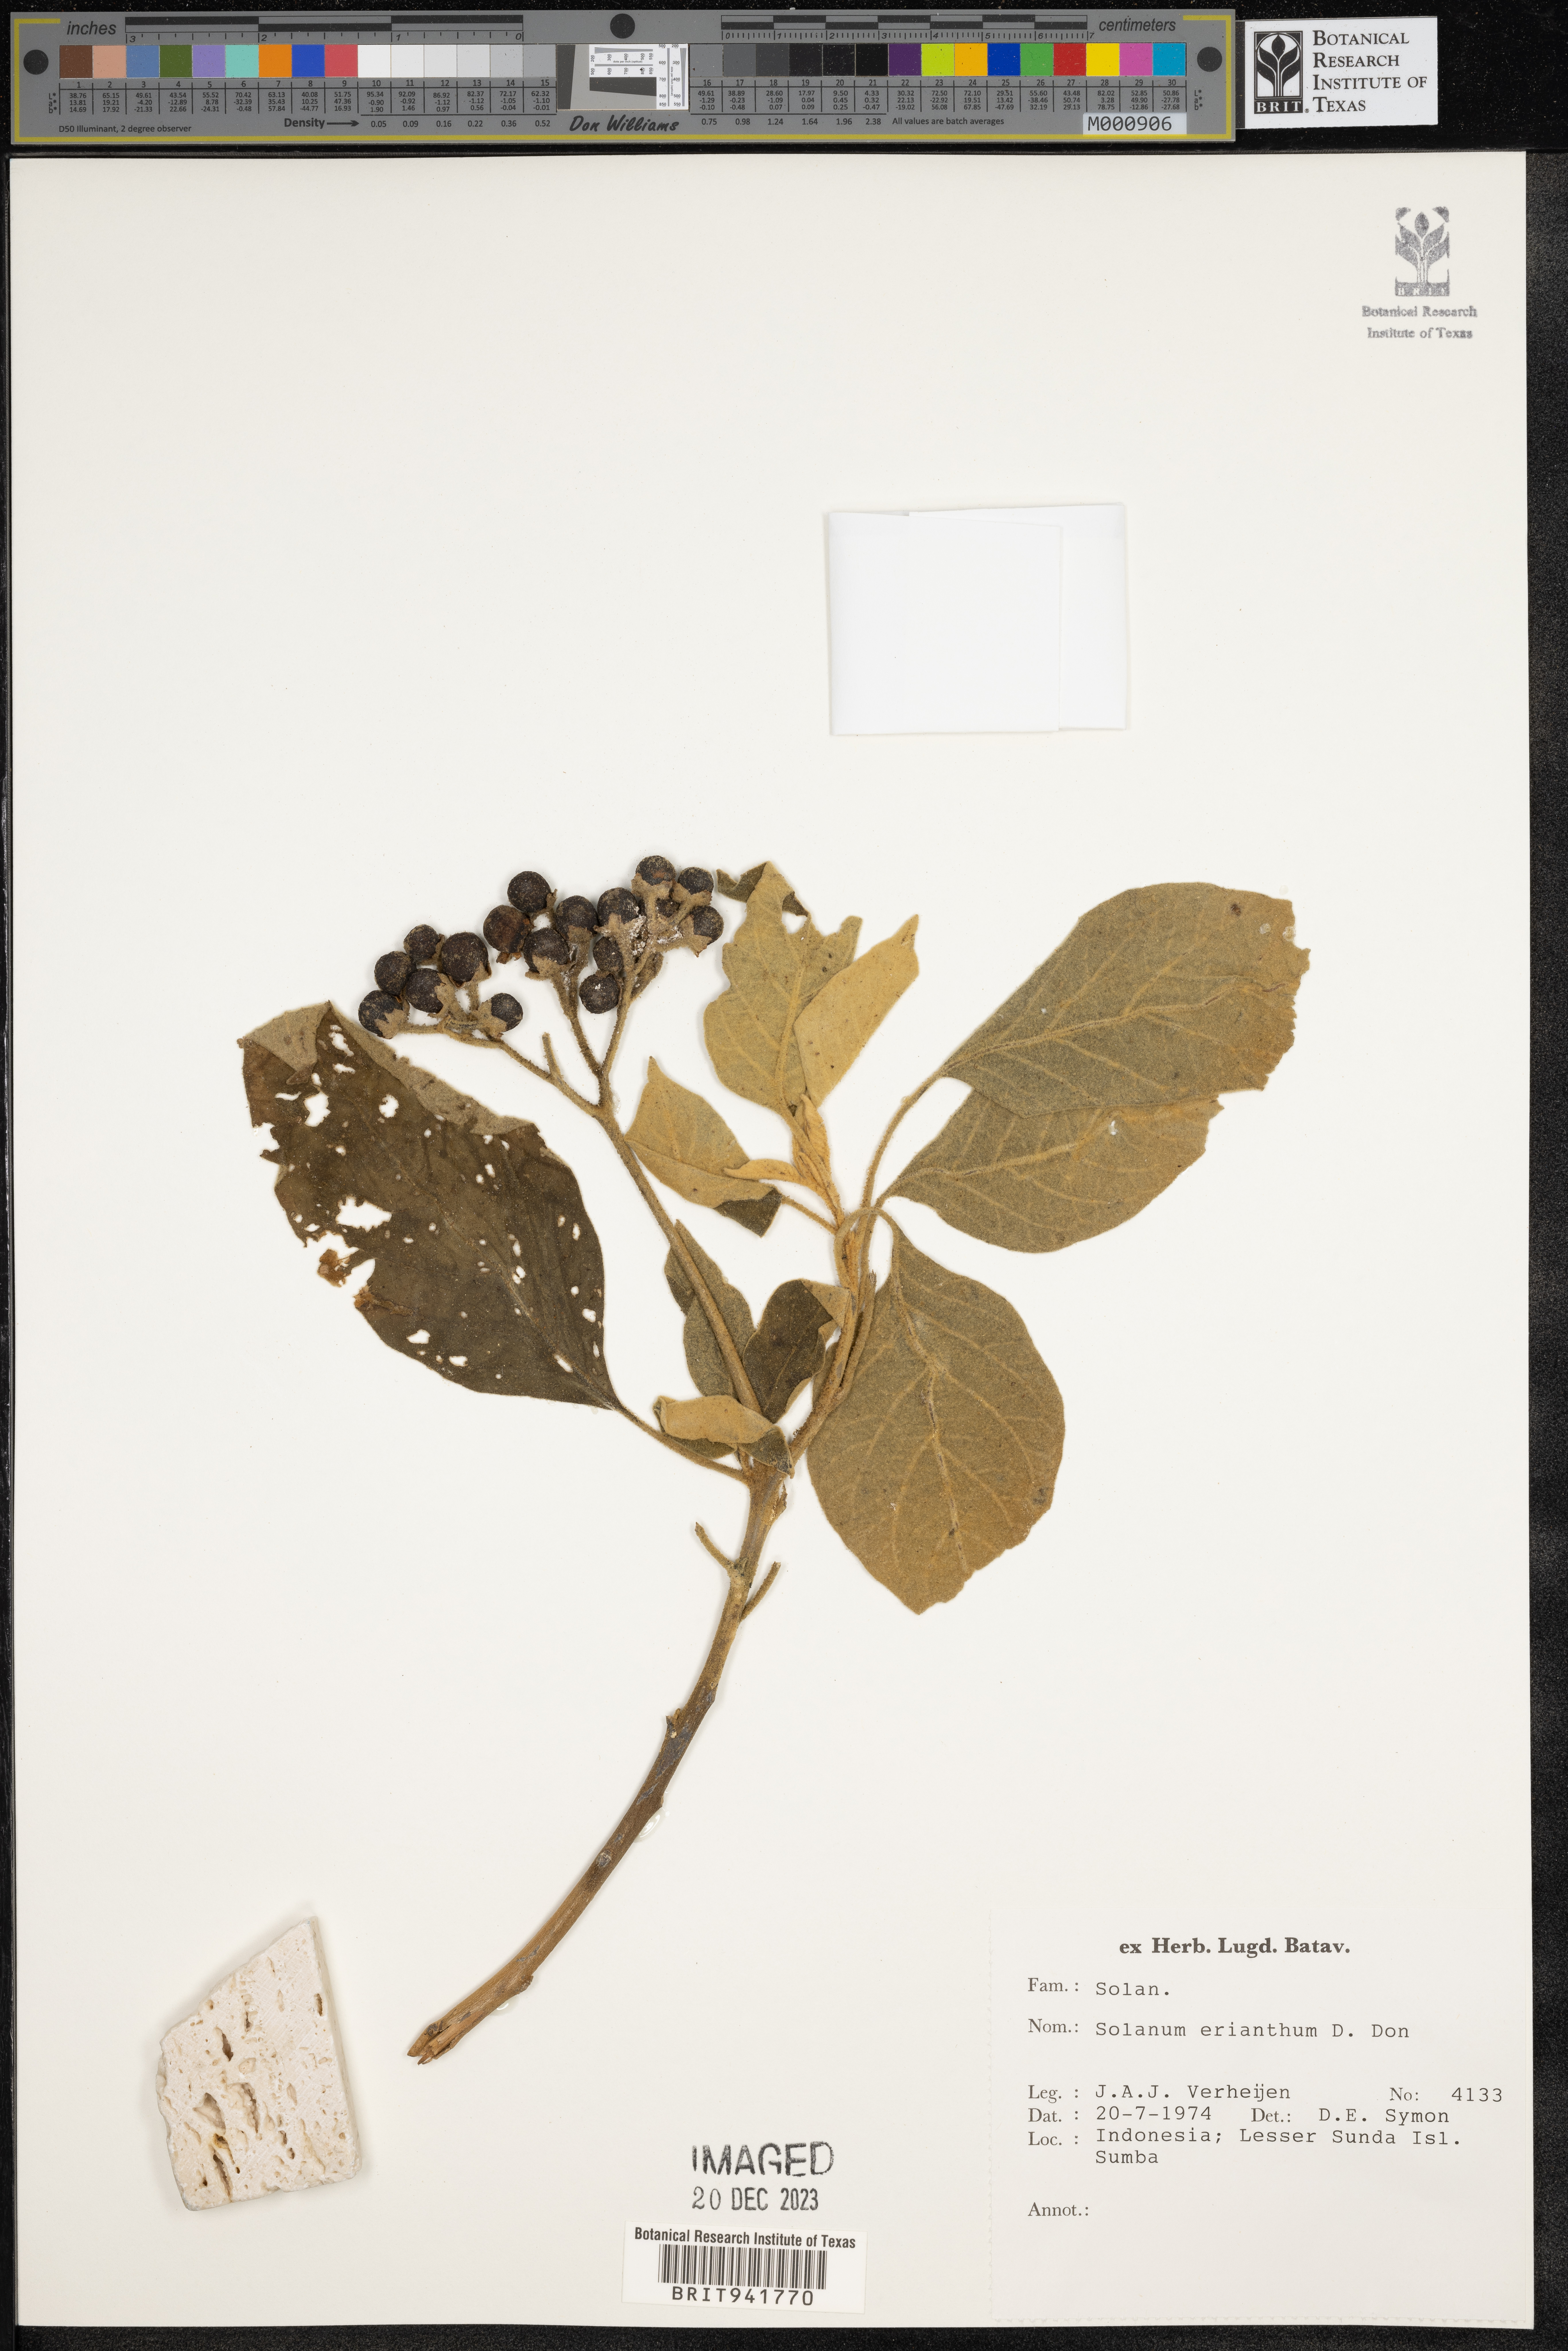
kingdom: Plantae
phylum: Tracheophyta
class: Magnoliopsida
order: Solanales
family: Solanaceae
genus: Solanum
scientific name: Solanum
